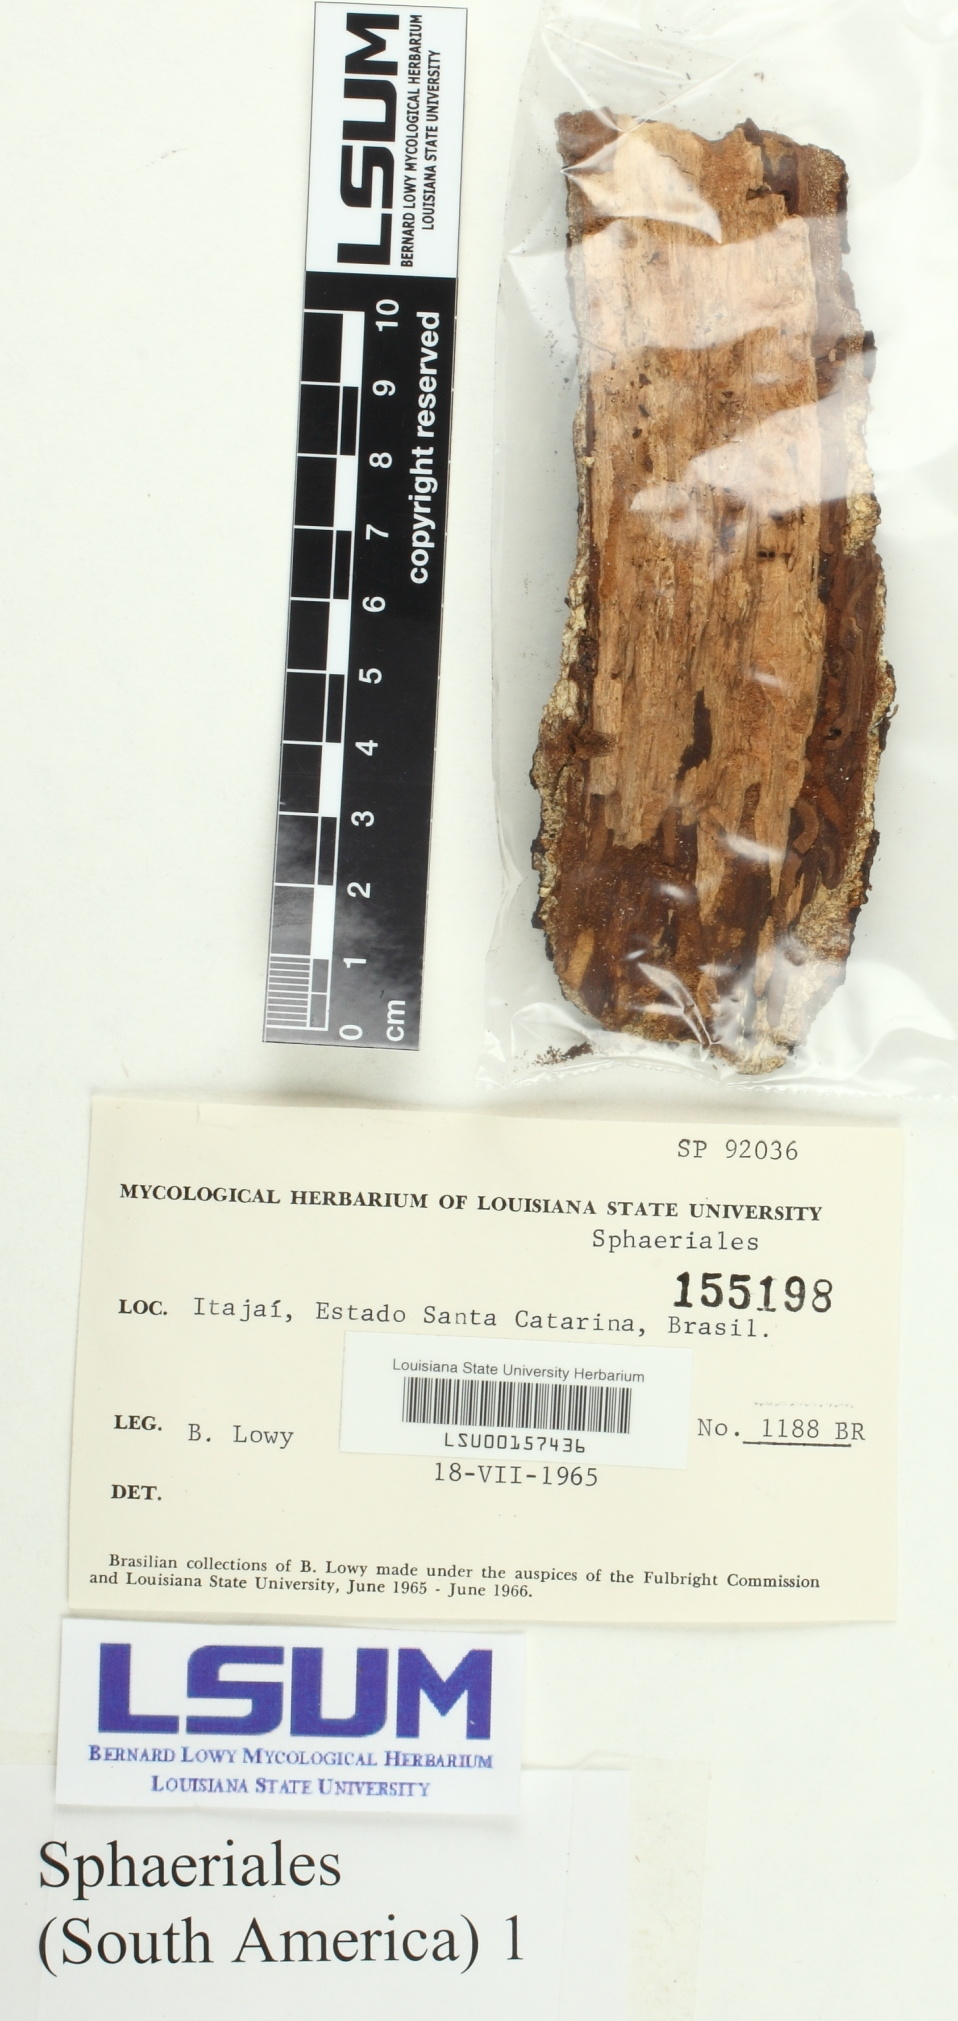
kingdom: Fungi
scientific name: Fungi
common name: Fungi
